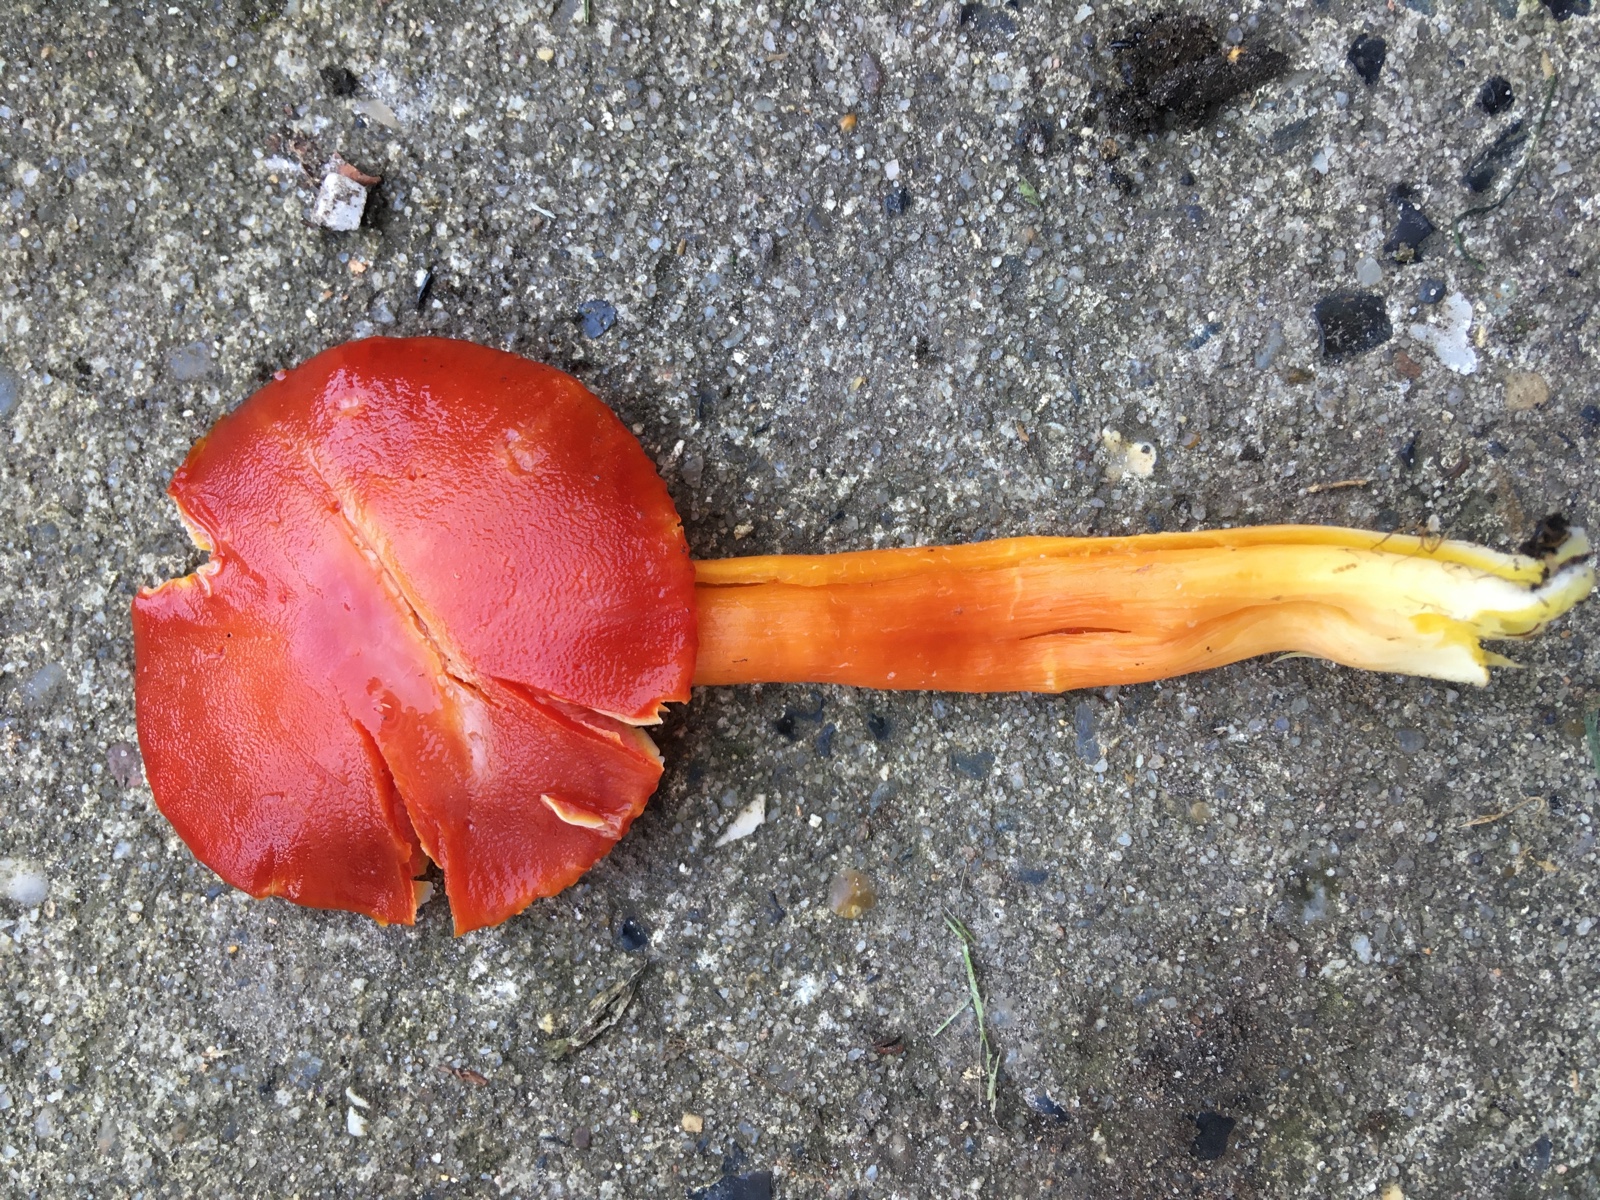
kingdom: Fungi
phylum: Basidiomycota
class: Agaricomycetes
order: Agaricales
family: Hygrophoraceae
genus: Hygrocybe
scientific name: Hygrocybe coccinea
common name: cinnober-vokshat
